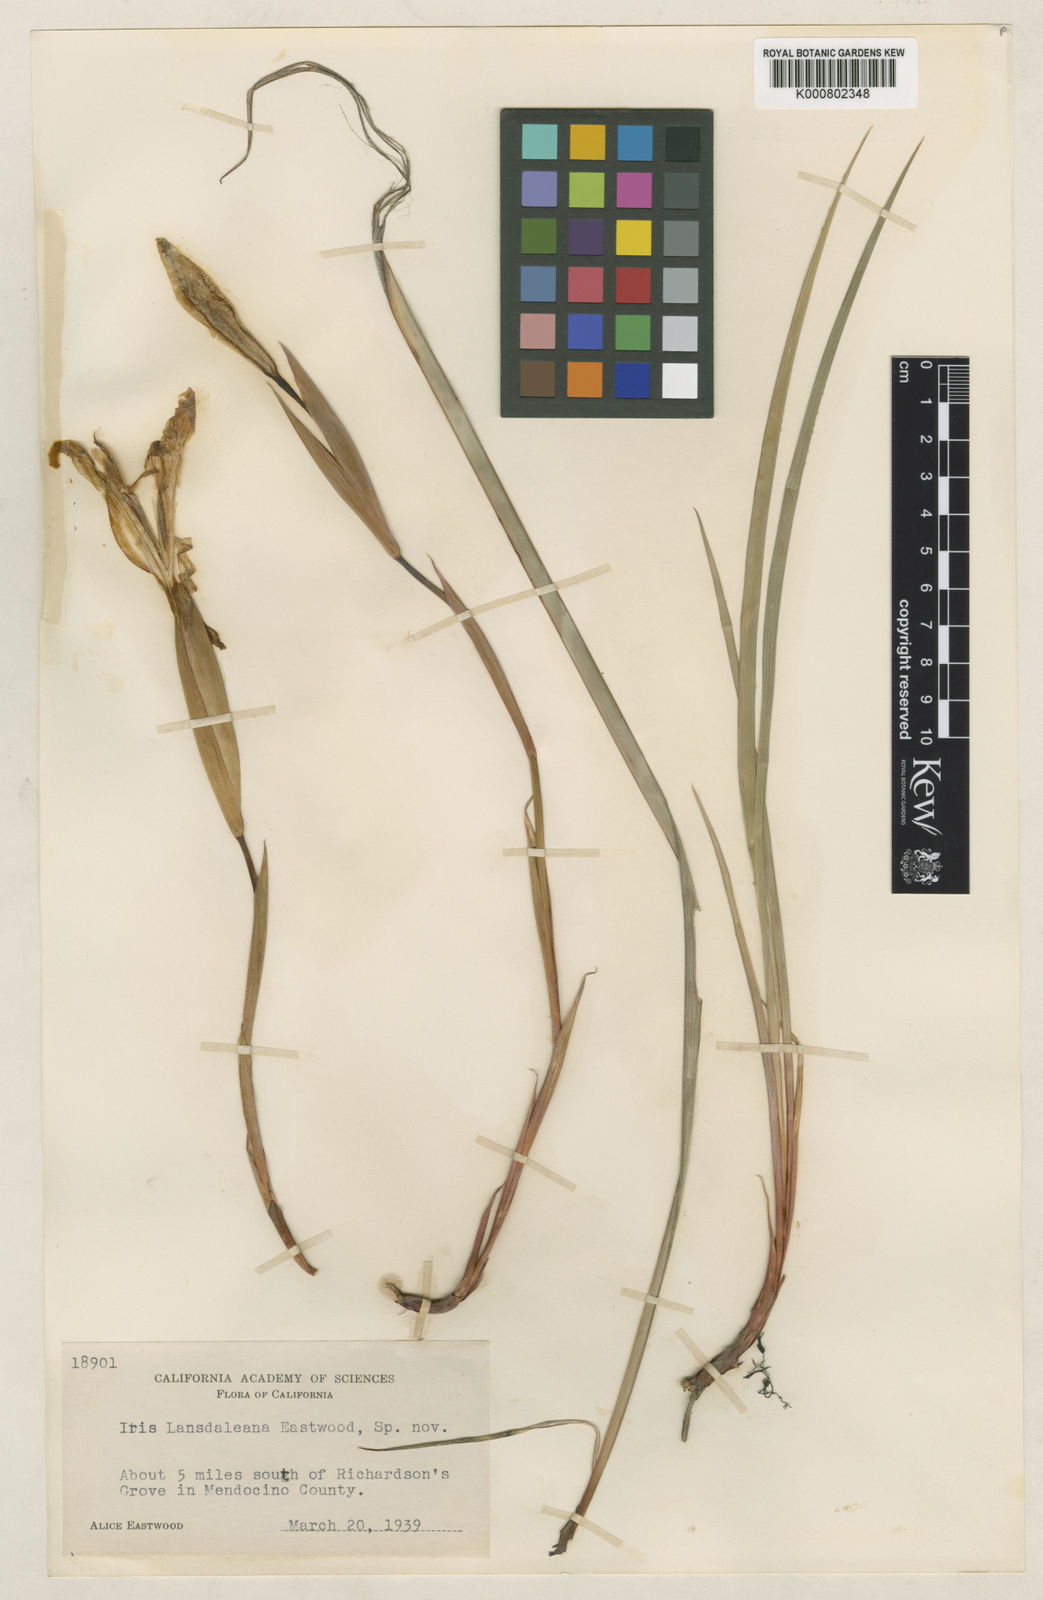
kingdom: Plantae
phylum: Tracheophyta
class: Liliopsida
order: Asparagales
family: Iridaceae
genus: Iris
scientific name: Iris purdyi
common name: Purdy's iris
